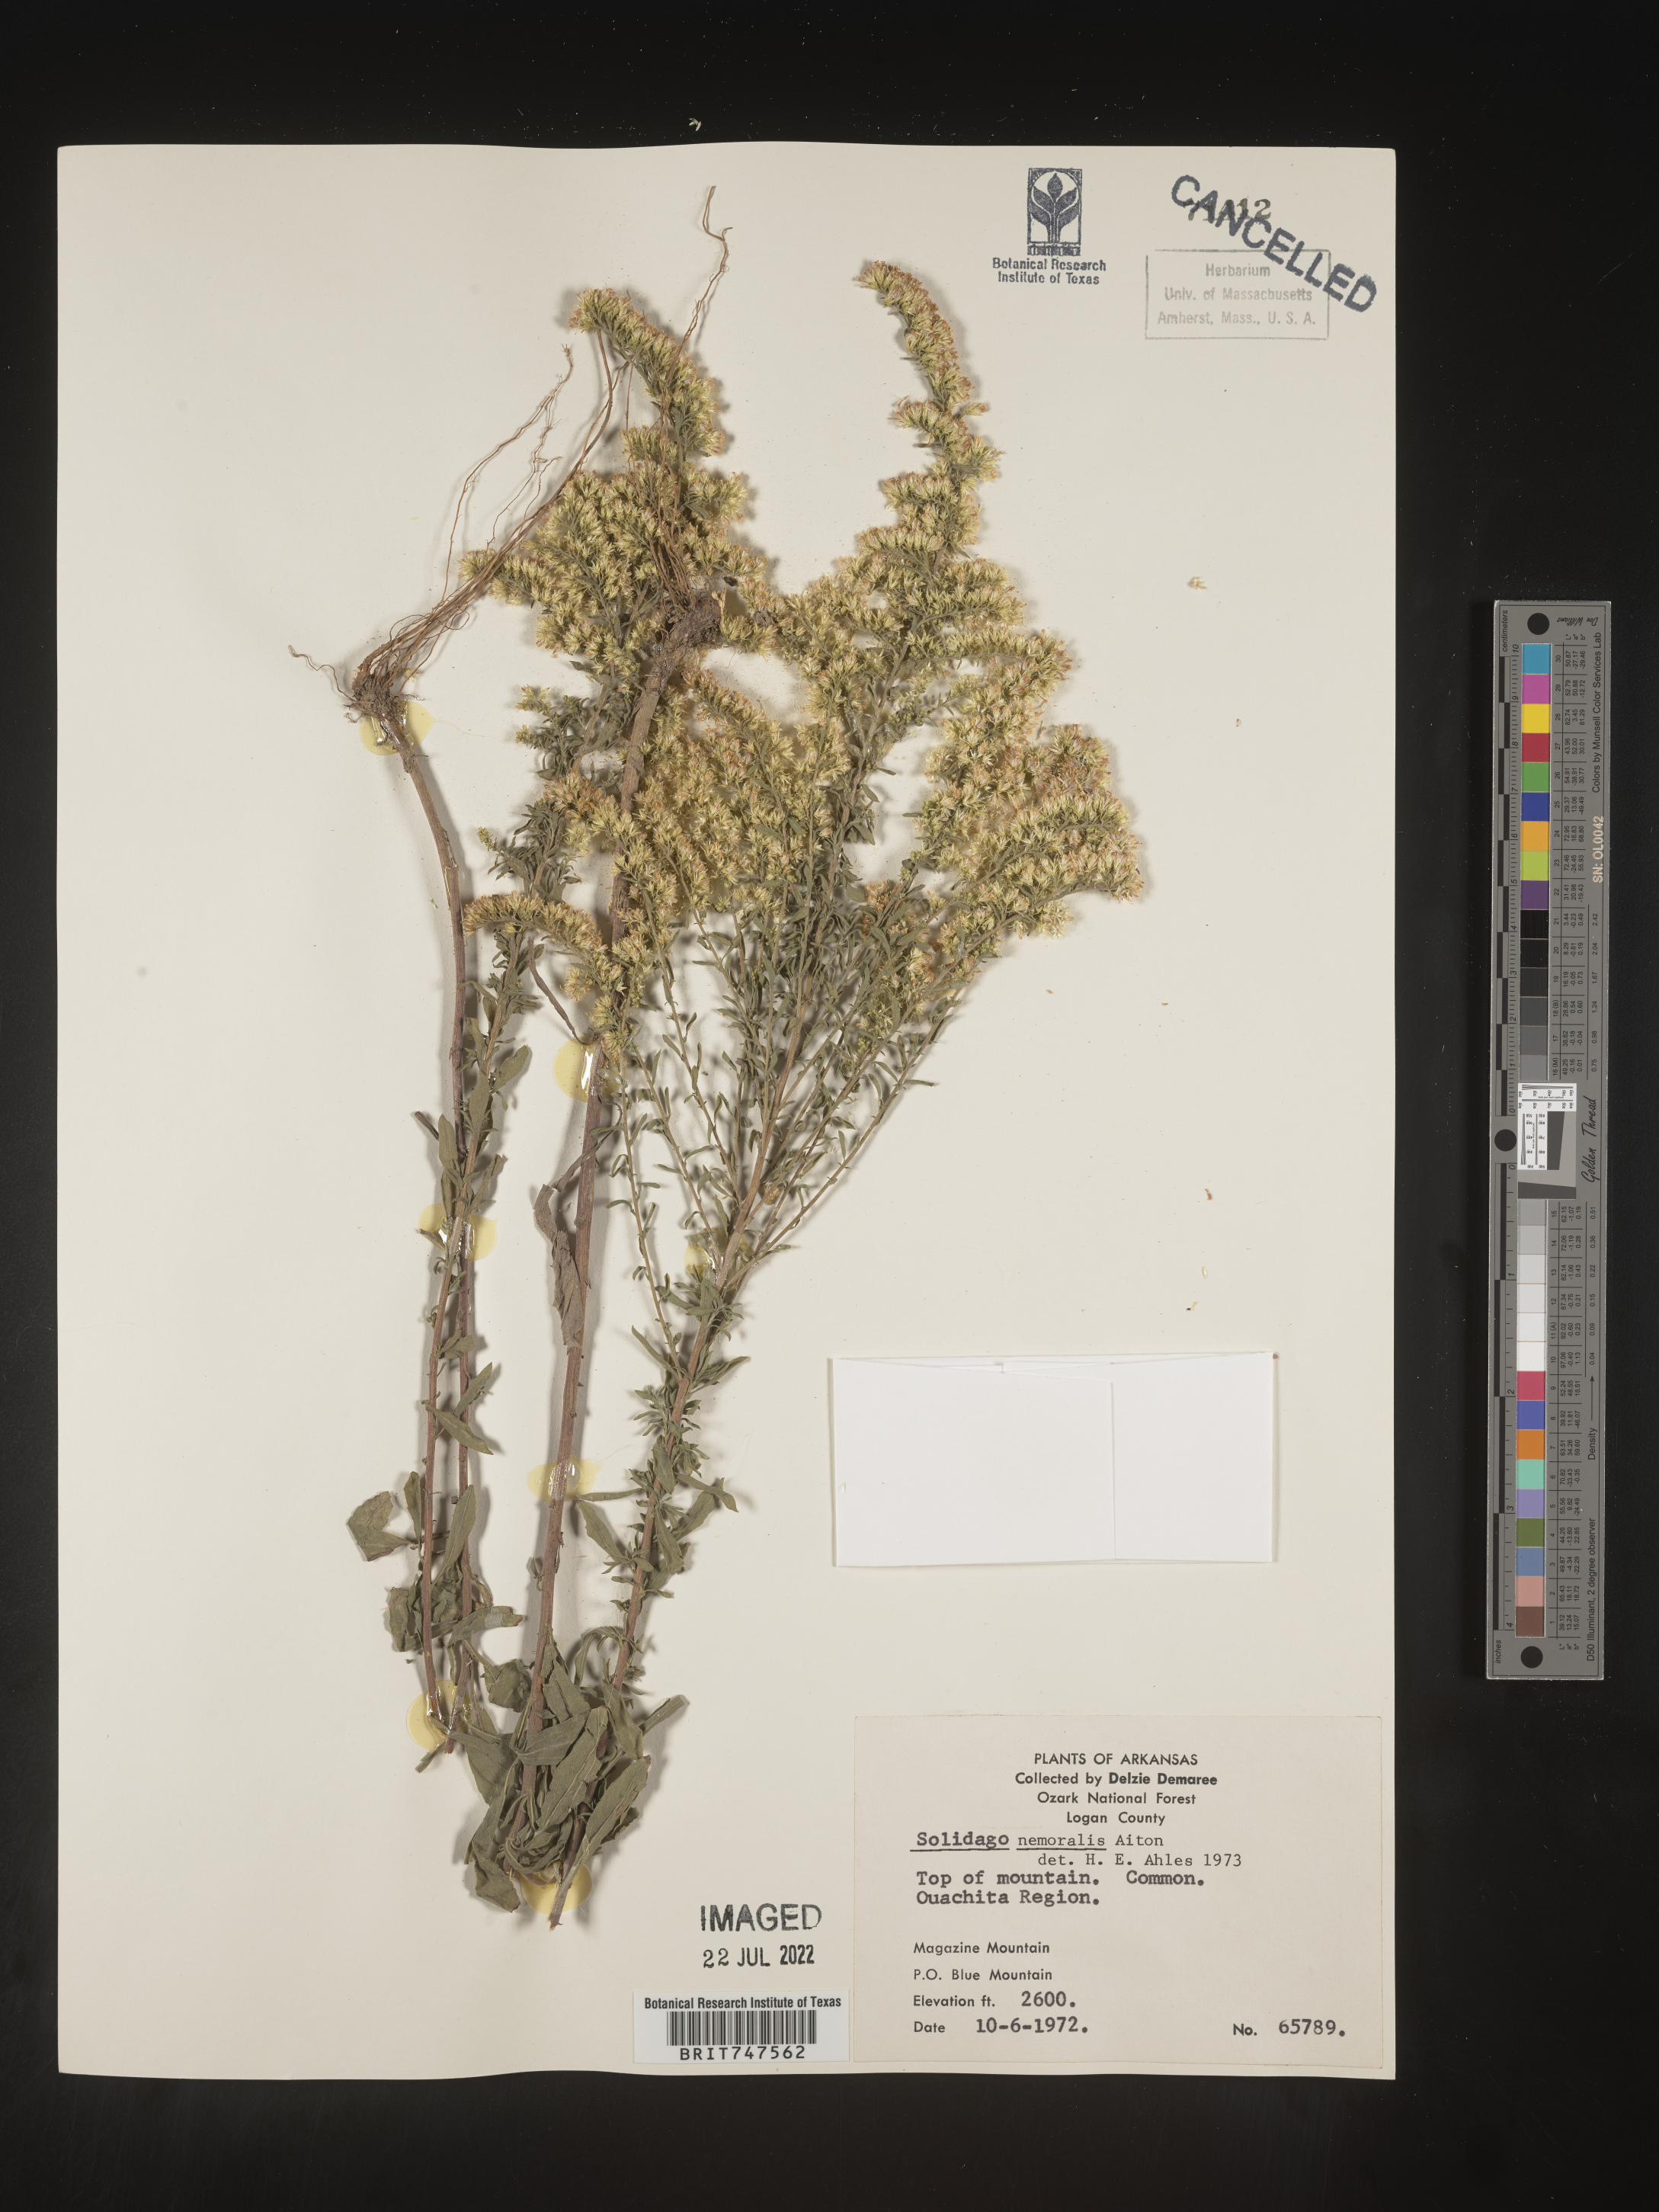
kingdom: Plantae
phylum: Tracheophyta
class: Magnoliopsida
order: Asterales
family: Asteraceae
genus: Solidago
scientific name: Solidago nemoralis
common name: Grey goldenrod
